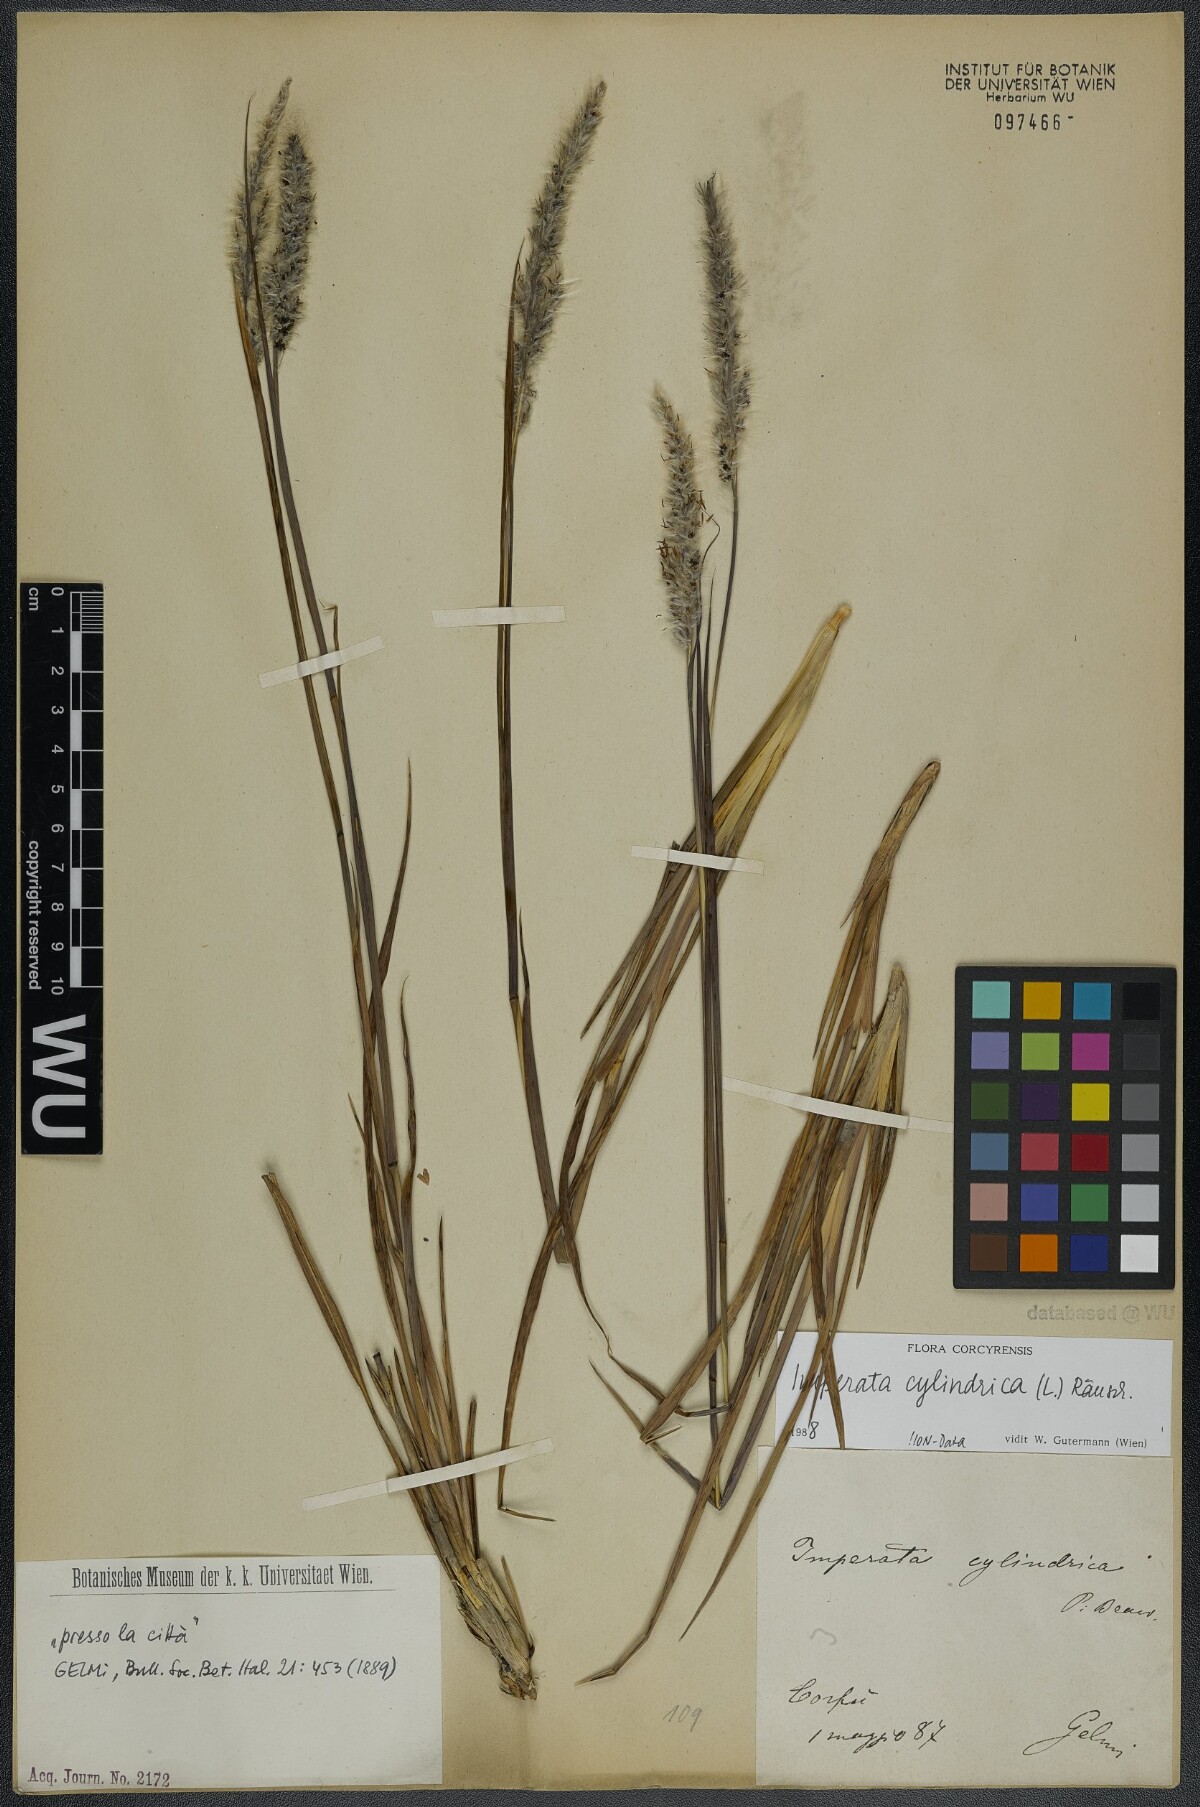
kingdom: Plantae
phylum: Tracheophyta
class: Liliopsida
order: Poales
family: Poaceae
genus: Imperata
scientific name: Imperata cylindrica
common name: Cogongrass
